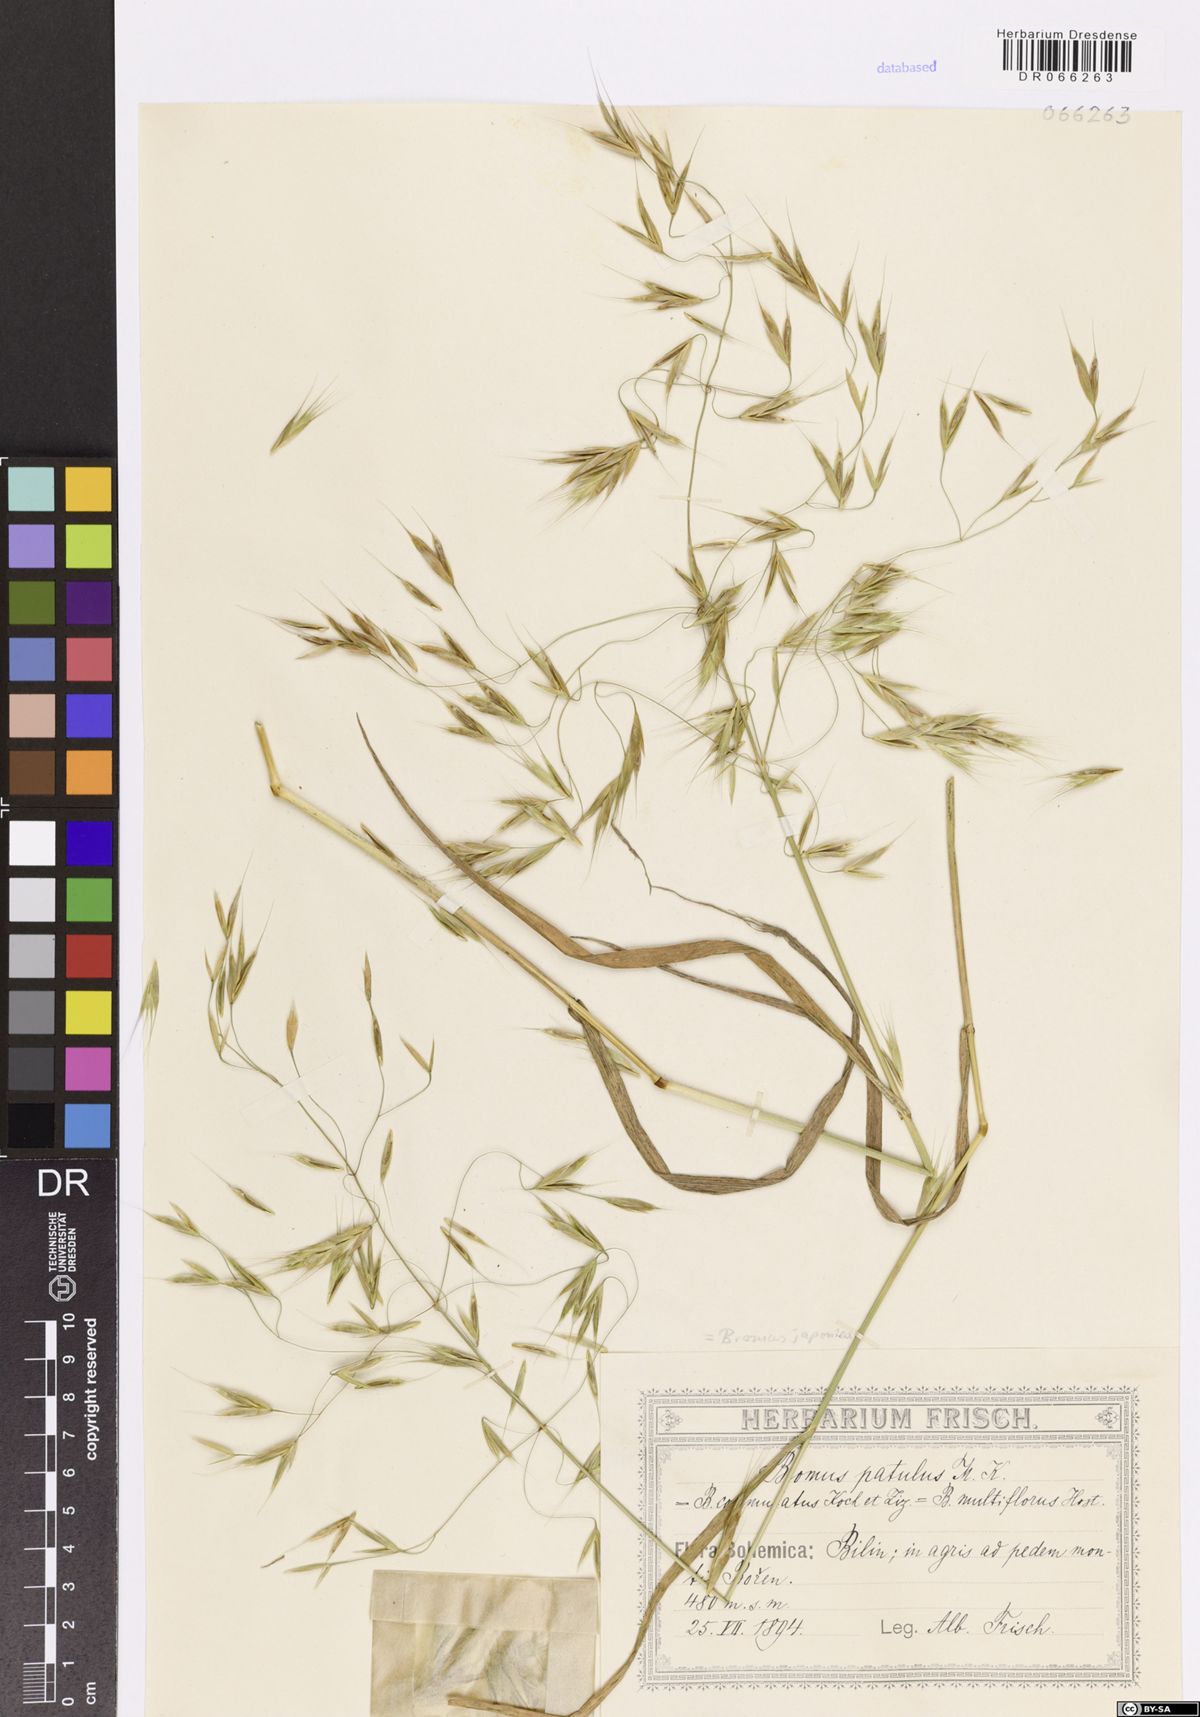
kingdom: Plantae
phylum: Tracheophyta
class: Liliopsida
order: Poales
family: Poaceae
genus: Bromus
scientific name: Bromus japonicus
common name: Japanese brome
